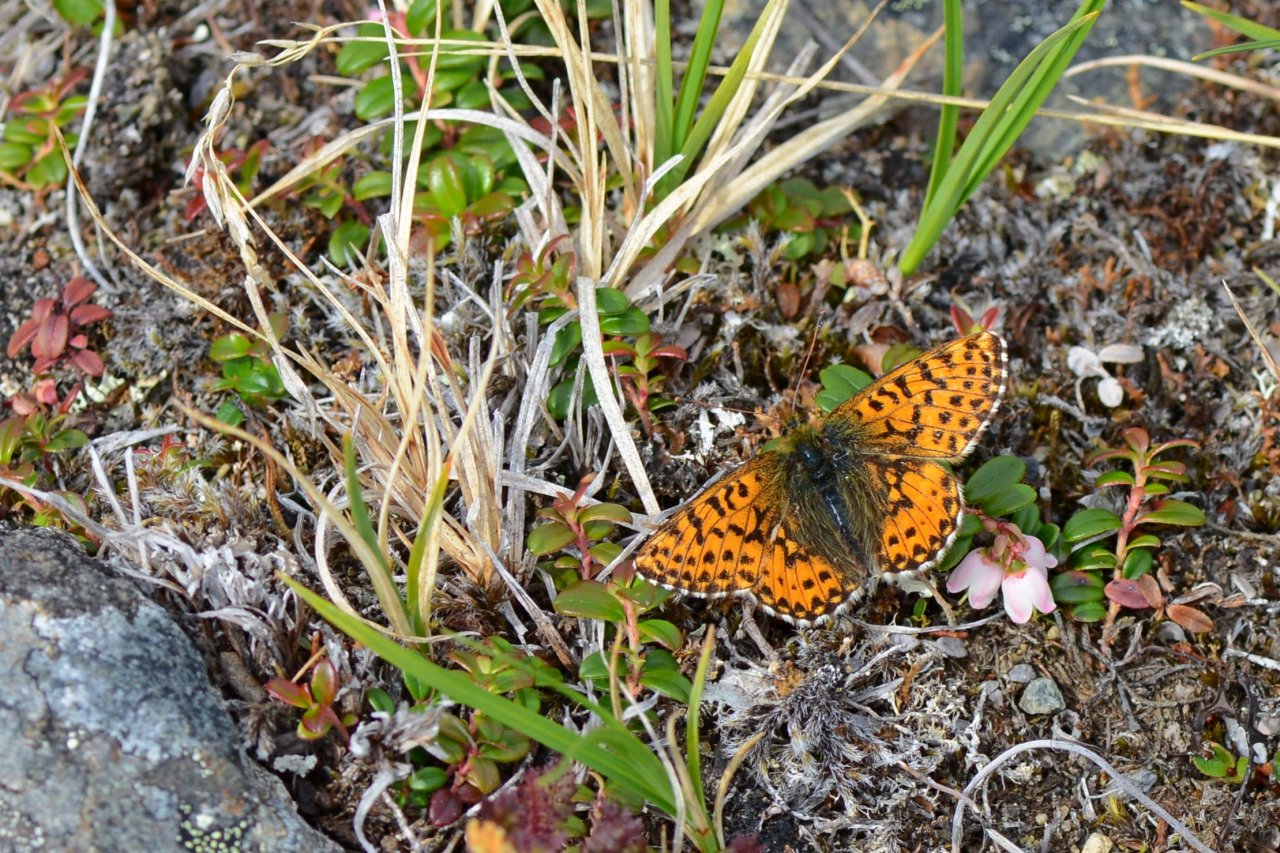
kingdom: Animalia
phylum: Arthropoda
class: Insecta
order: Lepidoptera
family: Nymphalidae
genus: Boloria
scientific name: Boloria chariclea
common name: Arctic Fritillary
